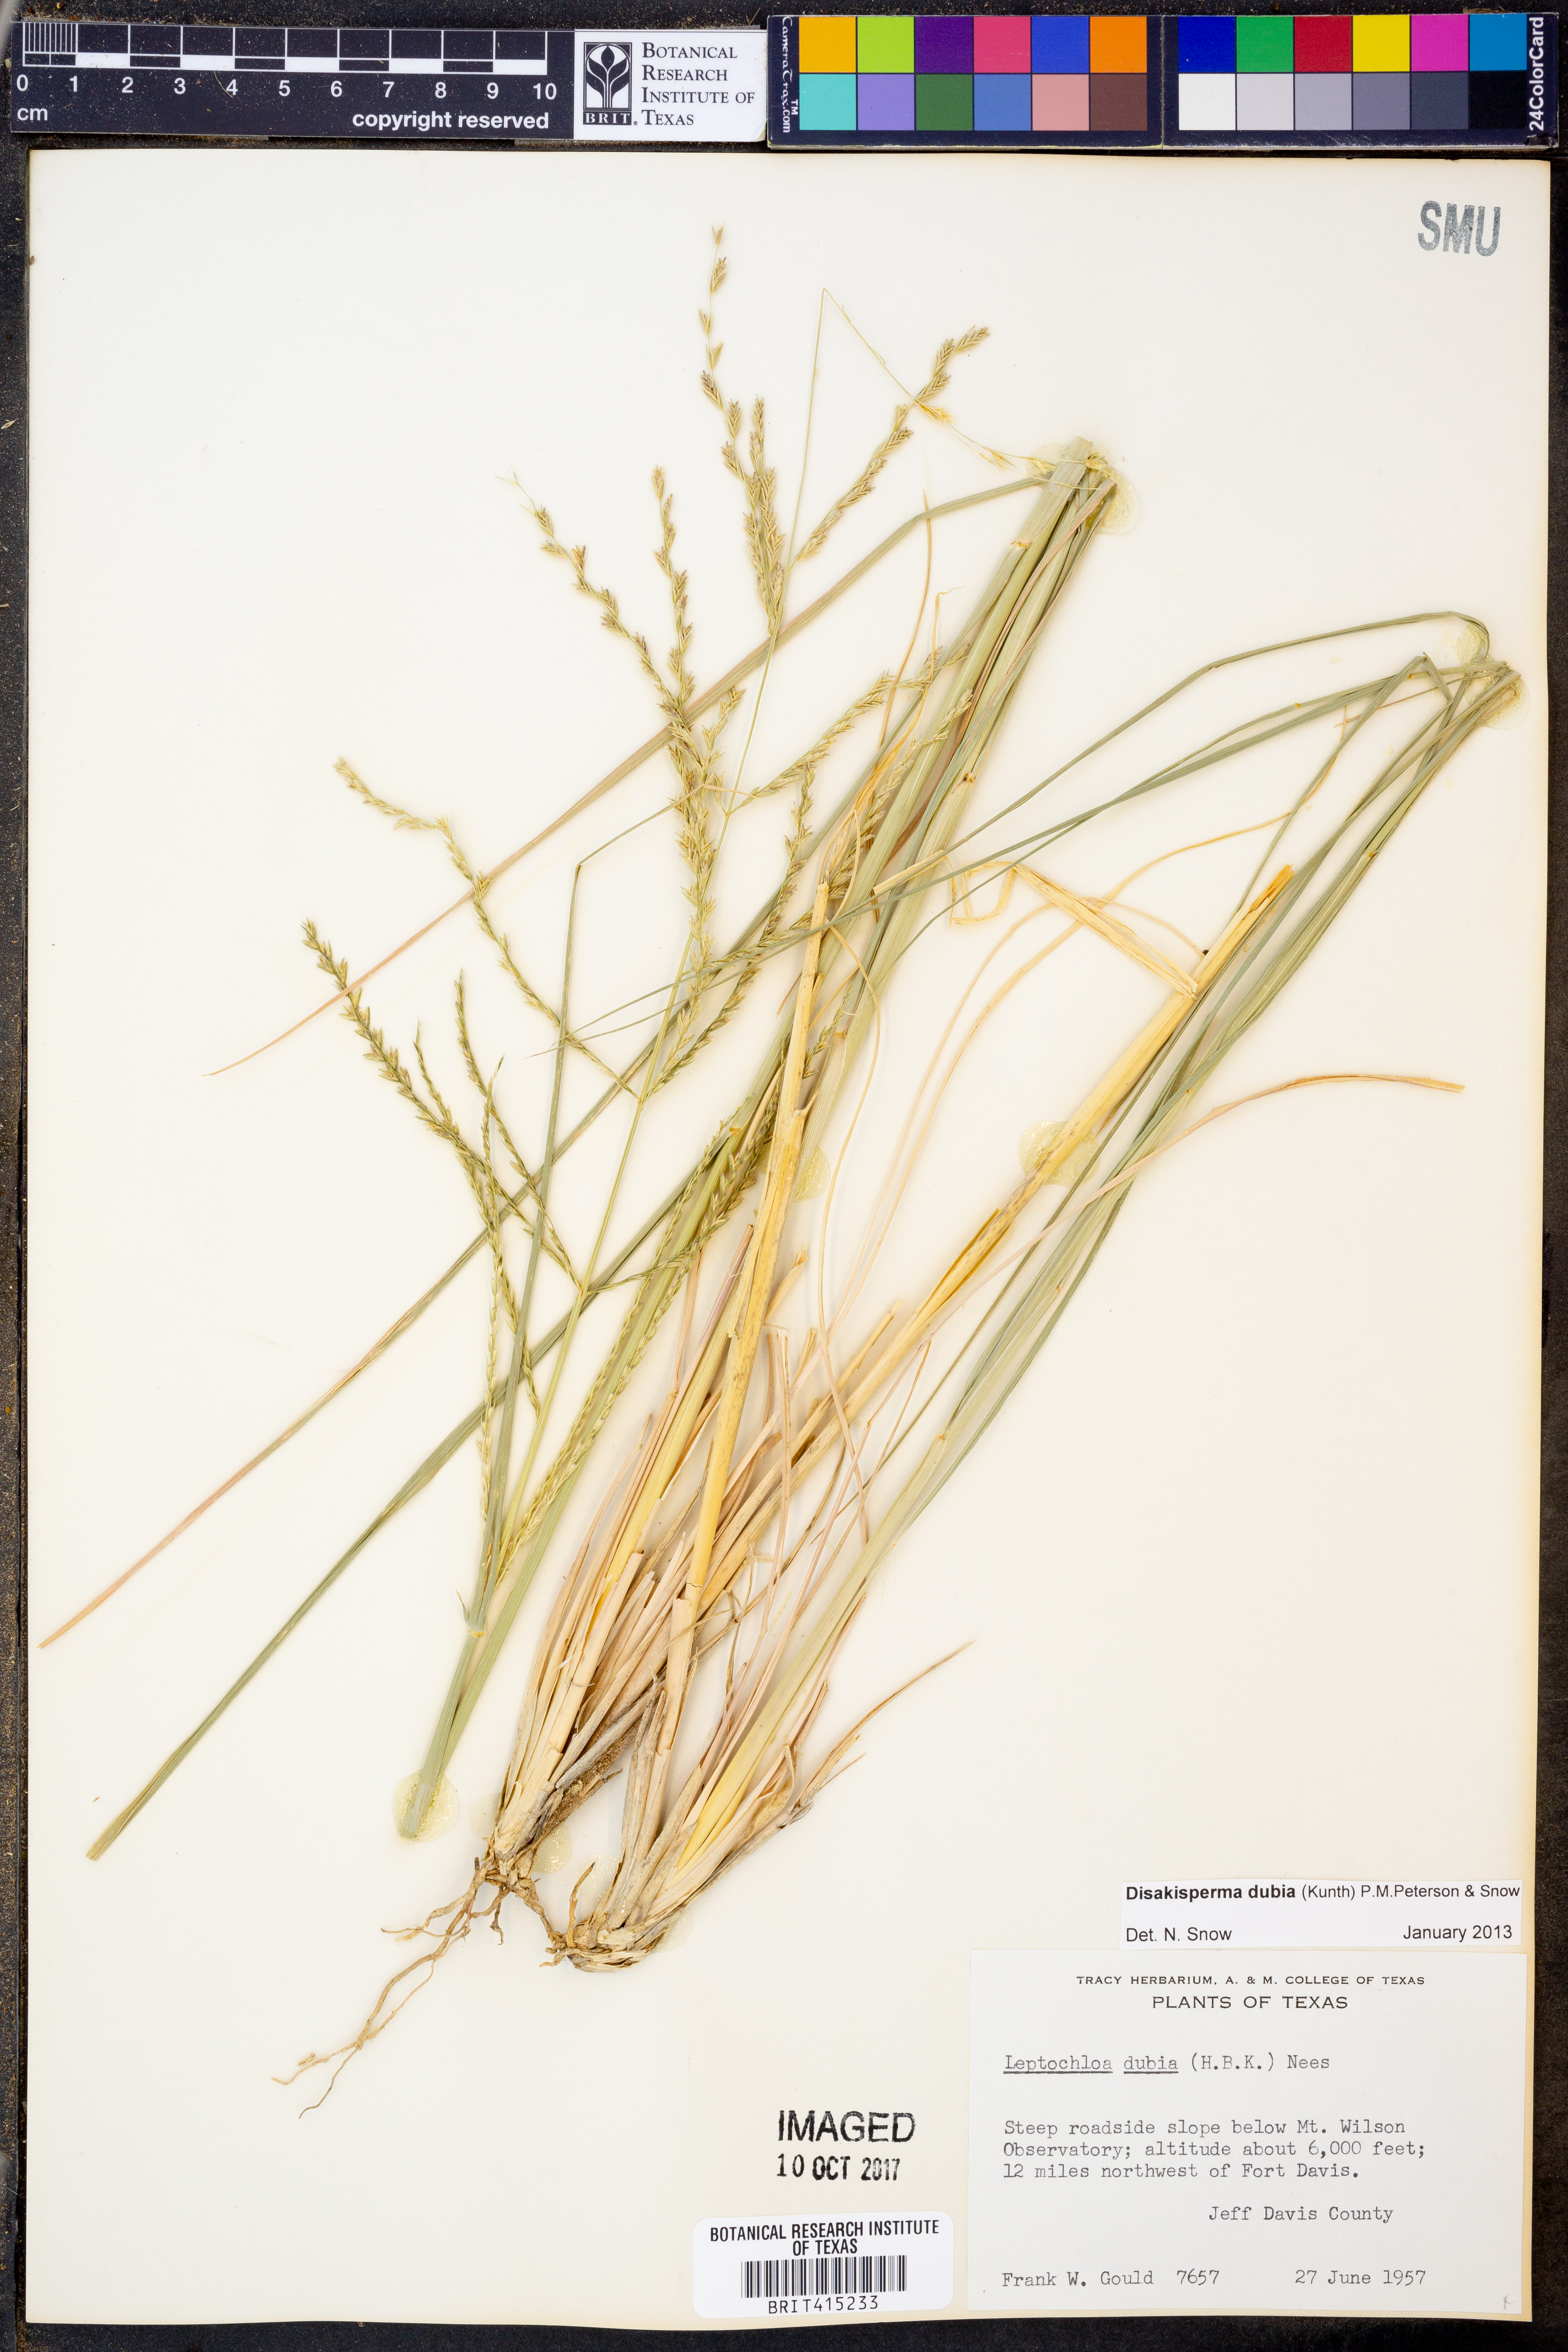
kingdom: Plantae
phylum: Tracheophyta
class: Liliopsida
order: Poales
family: Poaceae
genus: Disakisperma
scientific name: Disakisperma dubium
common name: Green sprangletop
